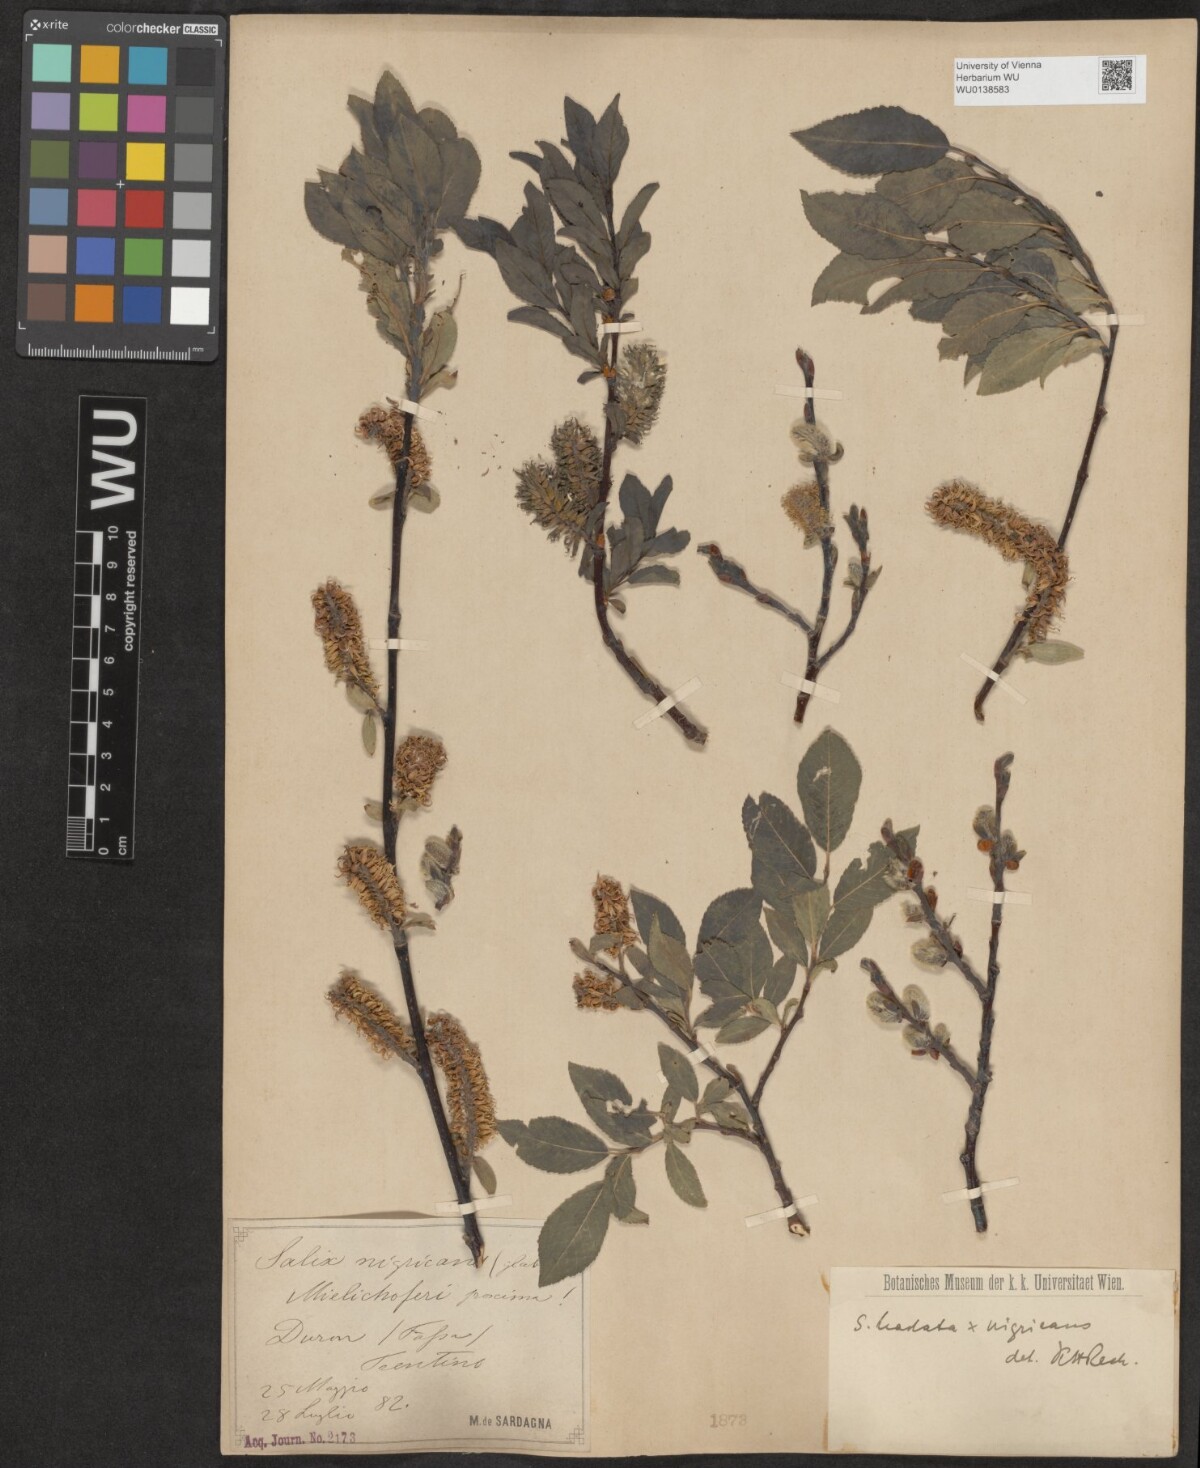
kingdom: Plantae
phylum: Tracheophyta
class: Magnoliopsida
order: Malpighiales
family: Salicaceae
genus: Salix
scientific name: Salix mielichhoferi
